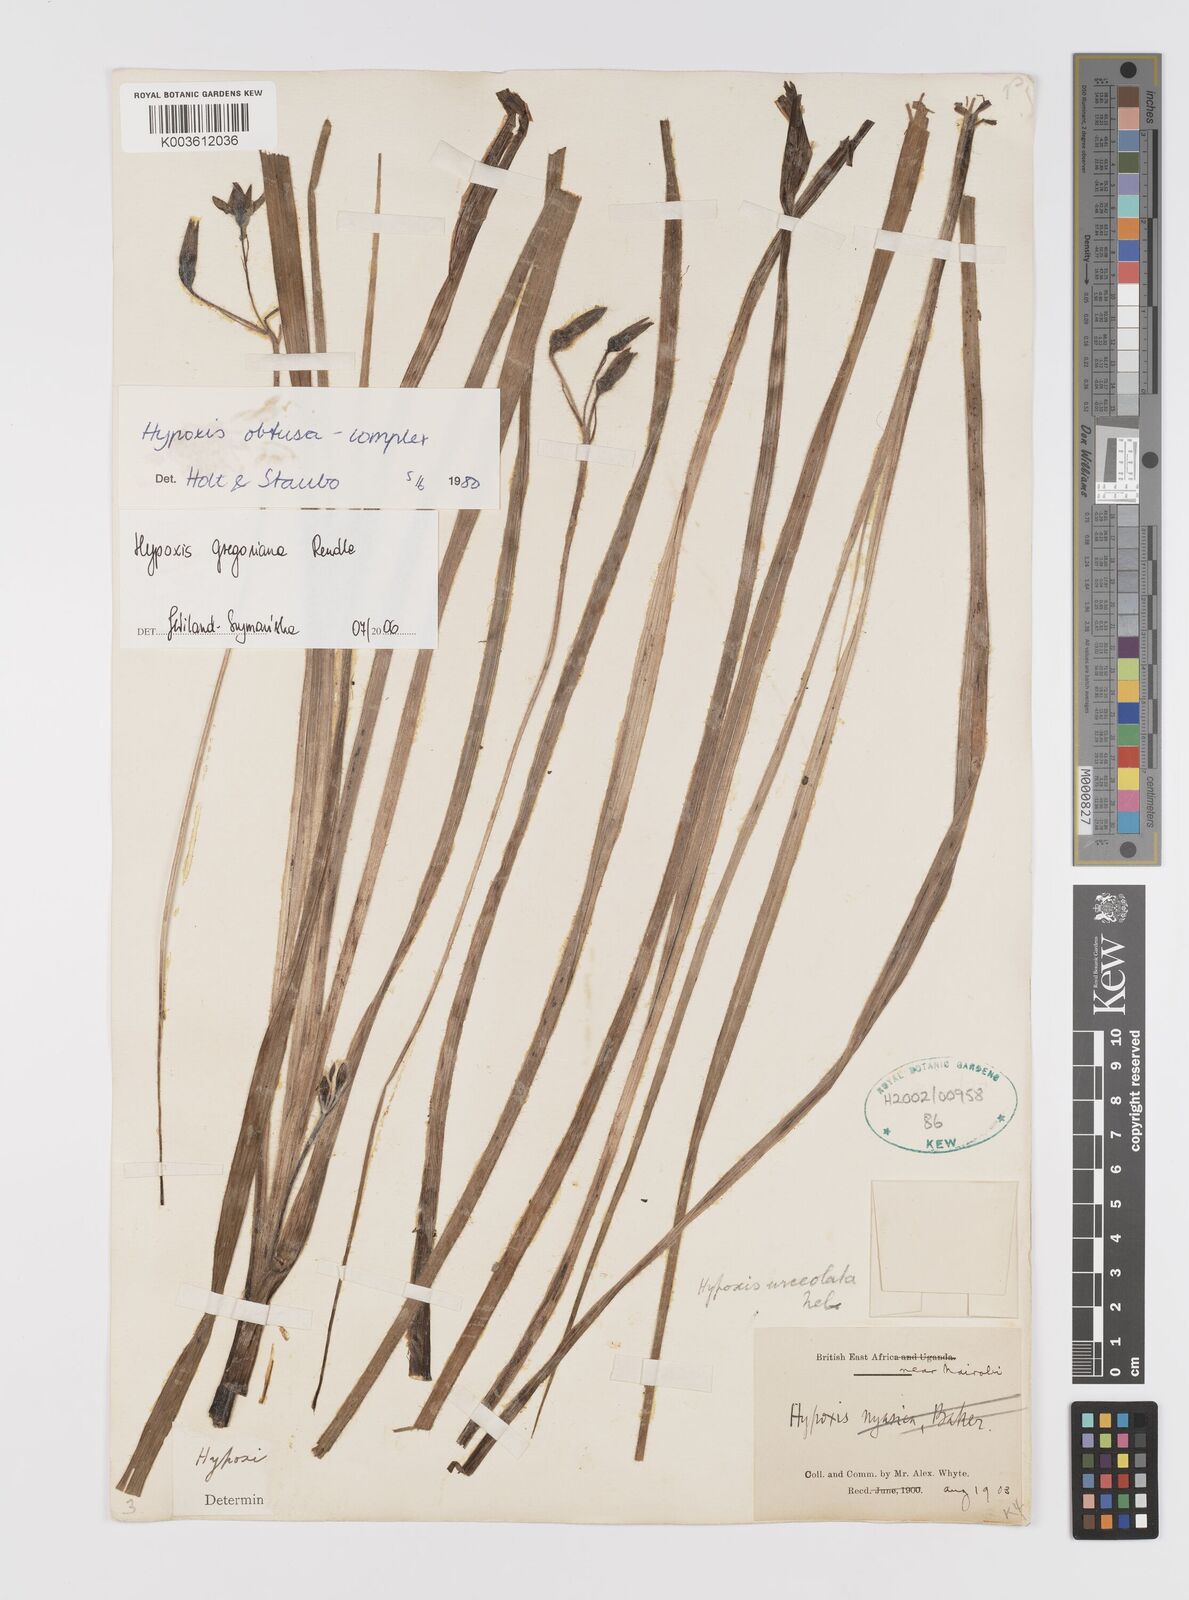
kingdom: Plantae
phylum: Tracheophyta
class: Liliopsida
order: Asparagales
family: Hypoxidaceae
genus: Hypoxis
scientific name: Hypoxis gregoriana
